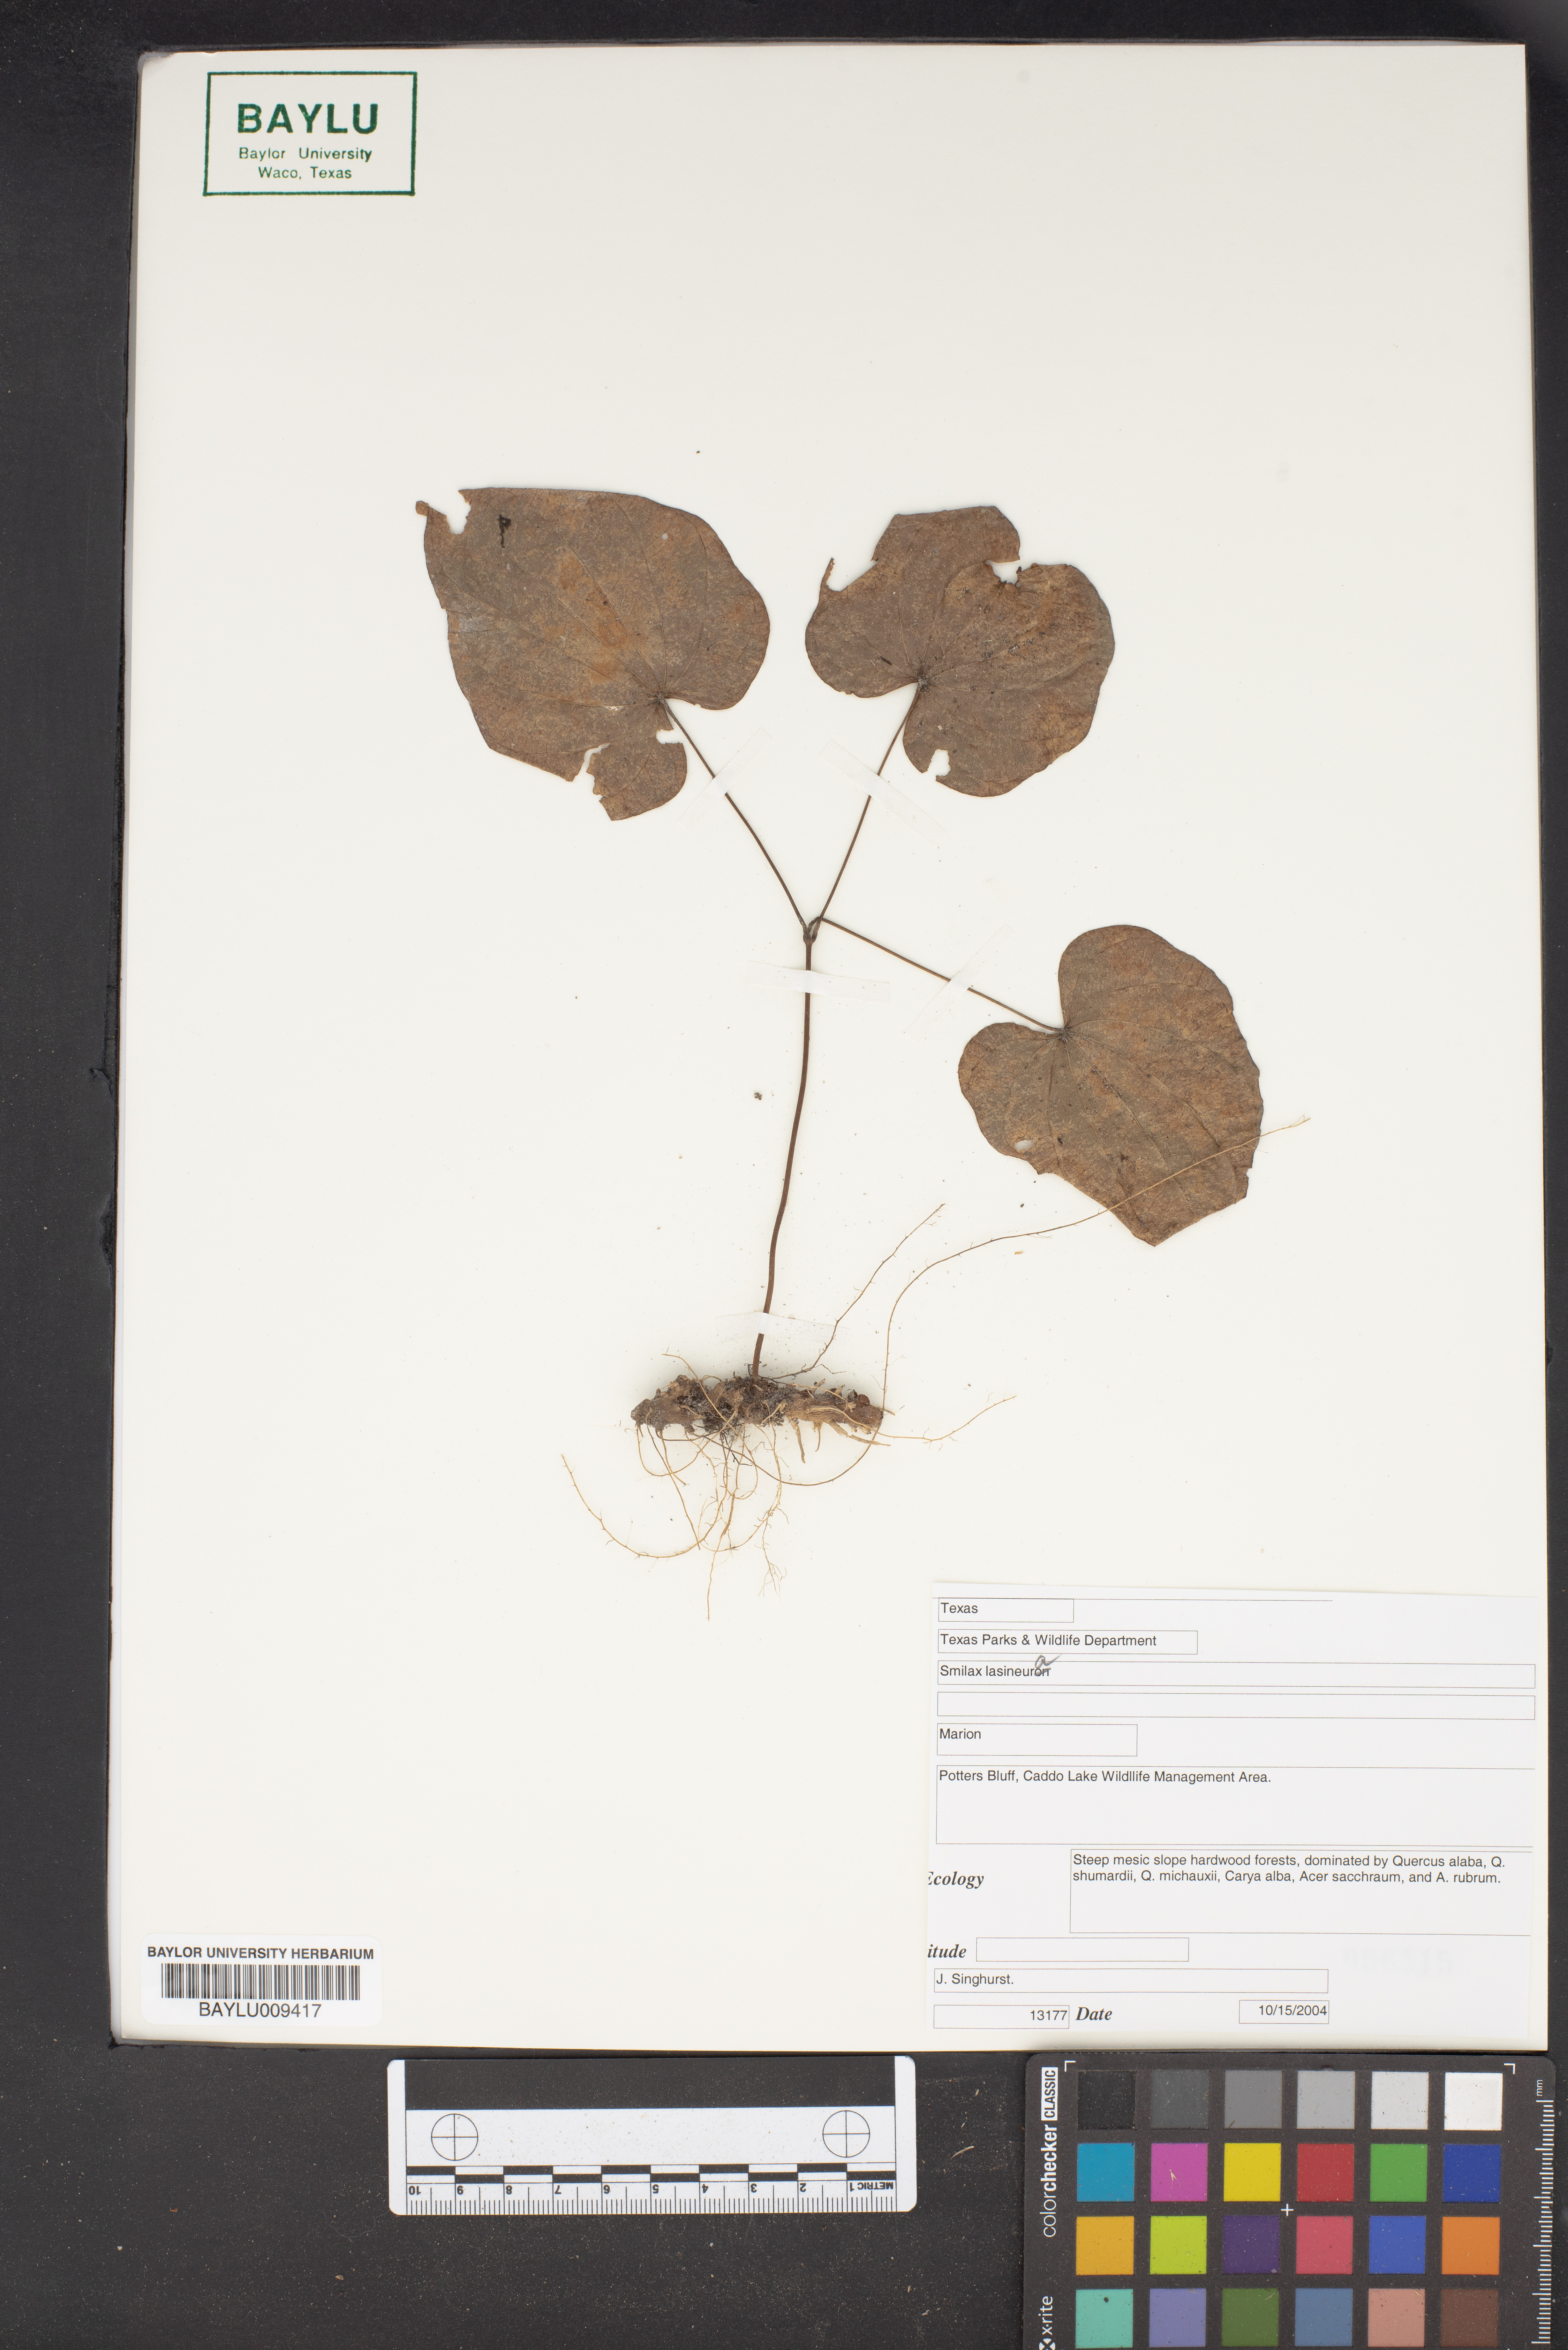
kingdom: Plantae
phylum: Tracheophyta
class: Liliopsida
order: Liliales
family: Smilacaceae
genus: Smilax
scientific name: Smilax lasioneura
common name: Blue ridge carrionflower
